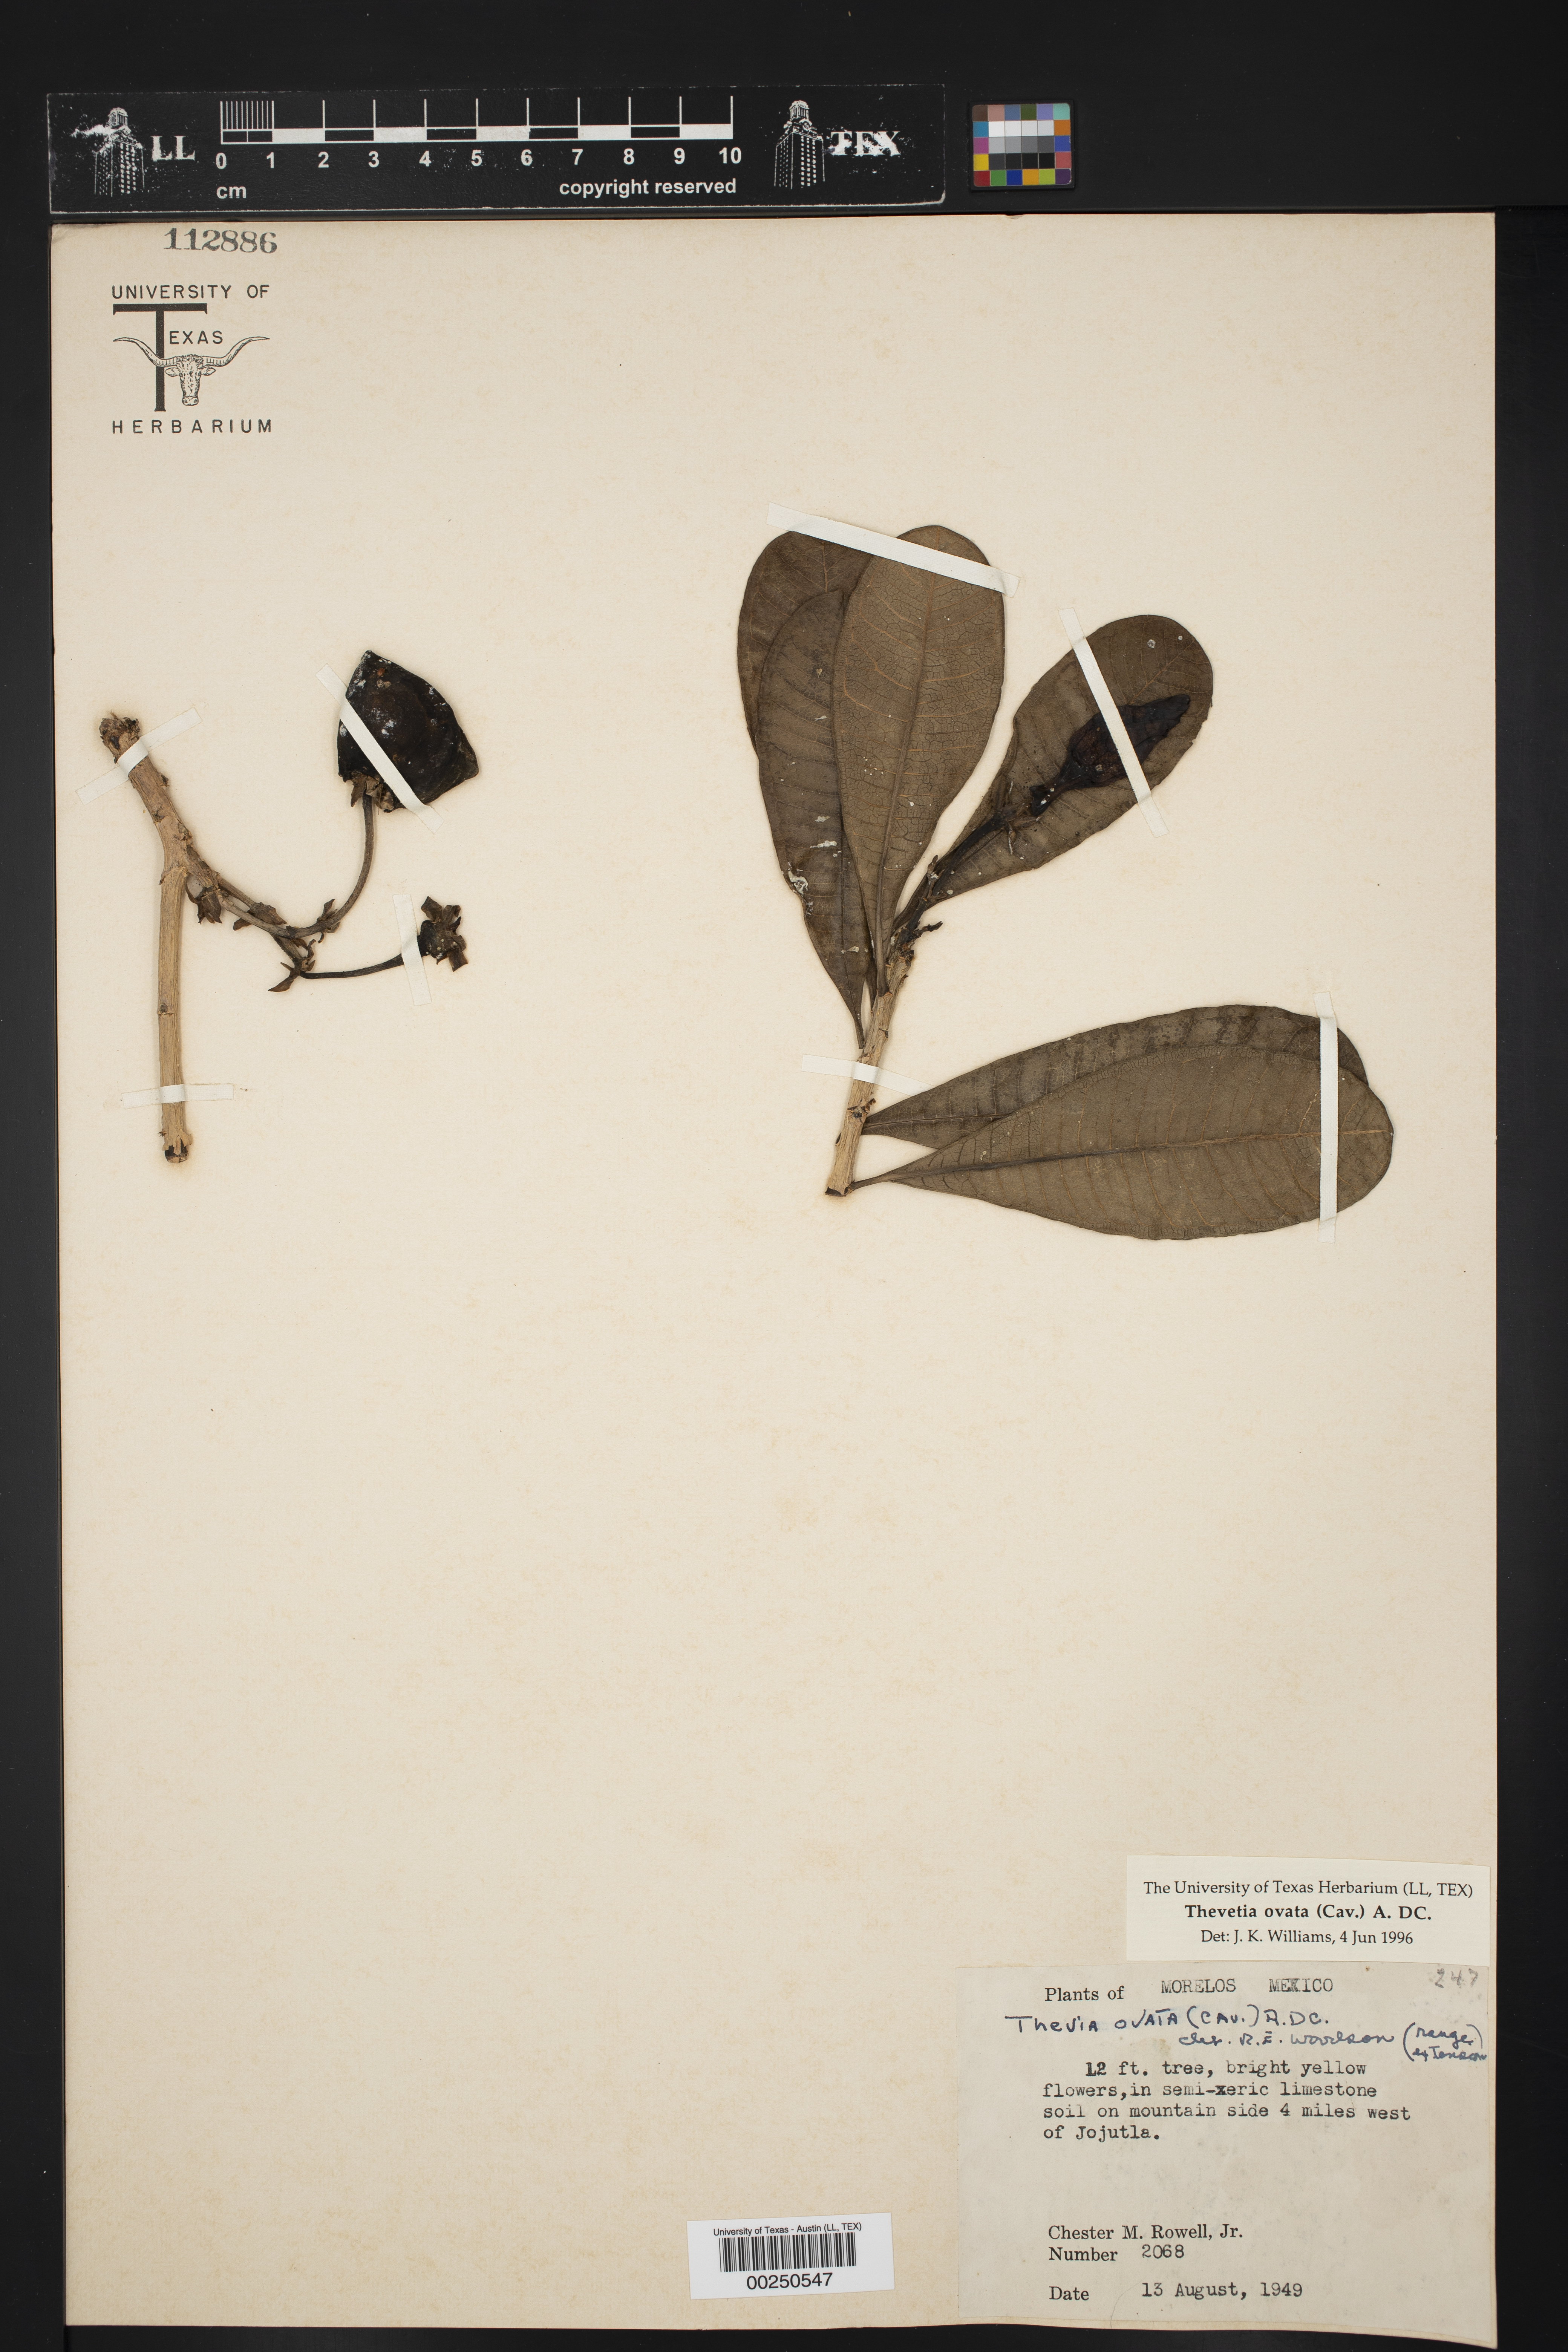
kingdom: Plantae
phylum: Tracheophyta
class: Magnoliopsida
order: Gentianales
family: Apocynaceae
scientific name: Apocynaceae
